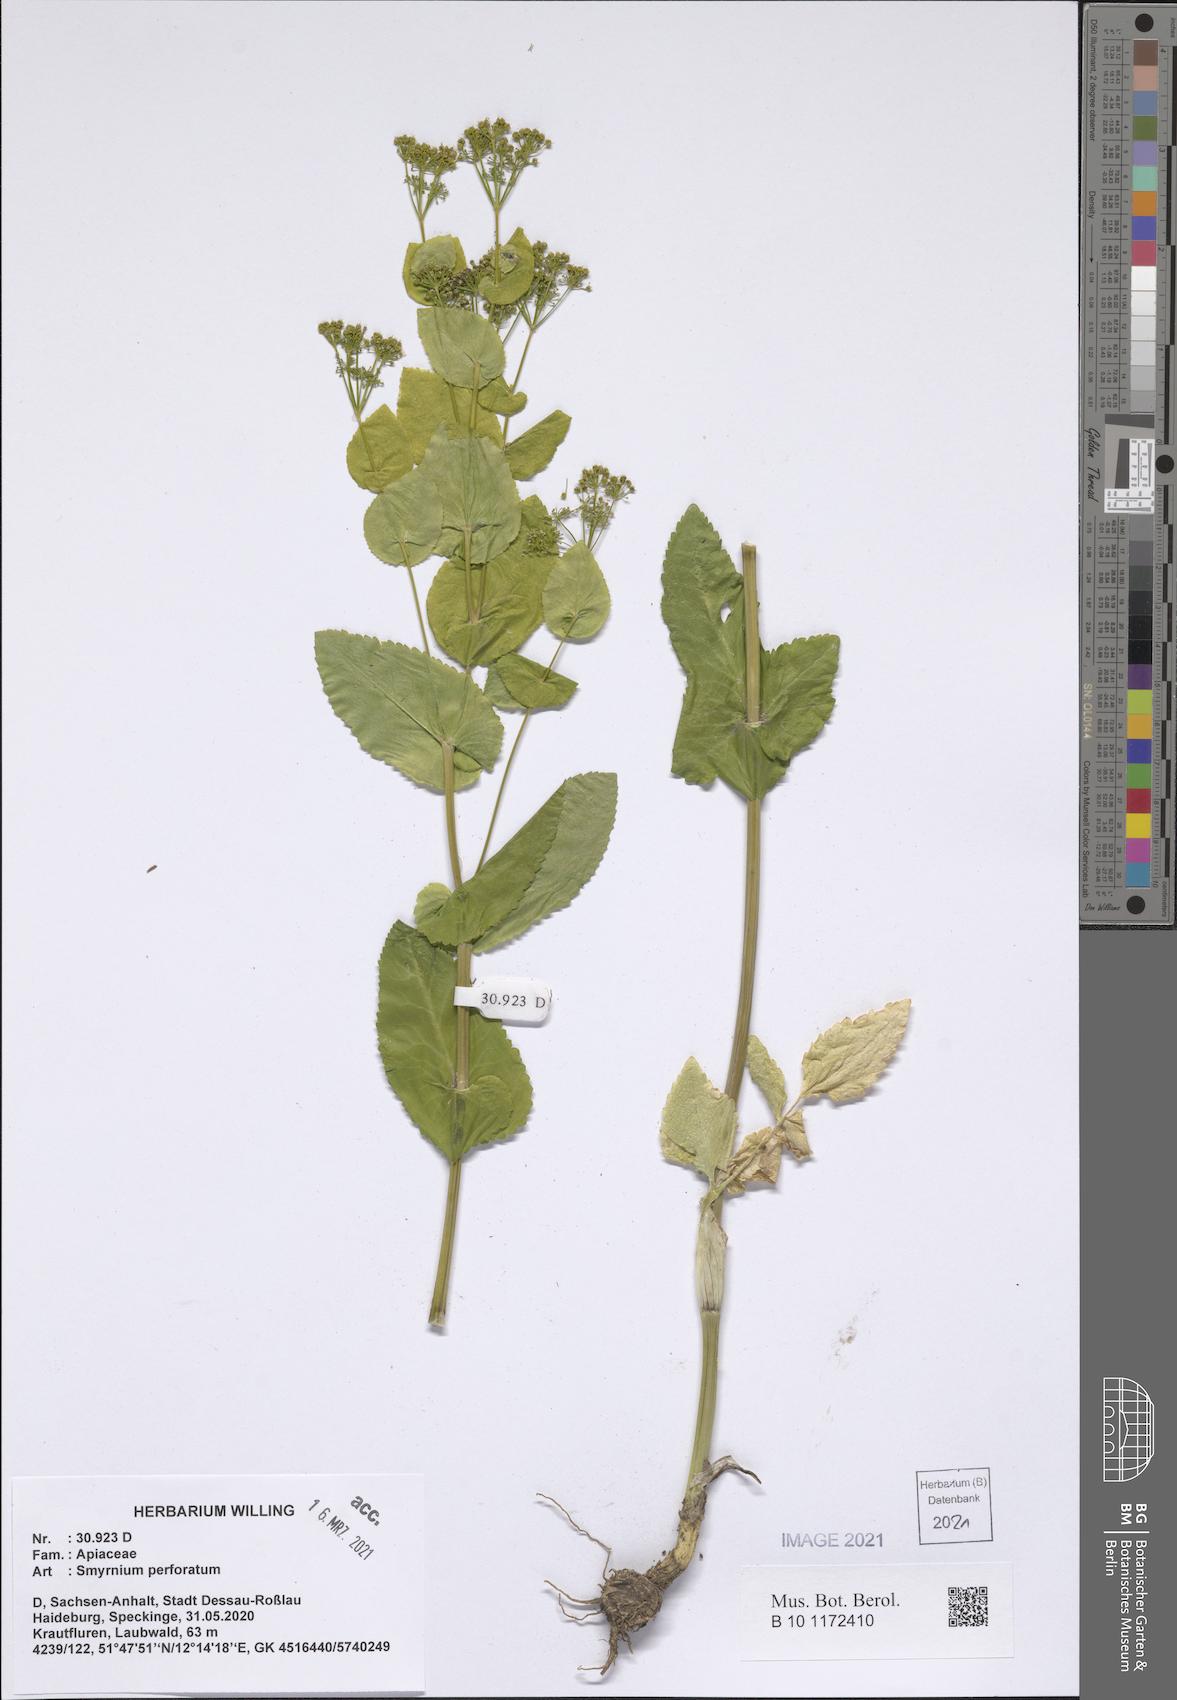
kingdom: Plantae
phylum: Tracheophyta
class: Magnoliopsida
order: Apiales
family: Apiaceae
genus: Smyrnium
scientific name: Smyrnium perfoliatum
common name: Perfoliate alexanders
